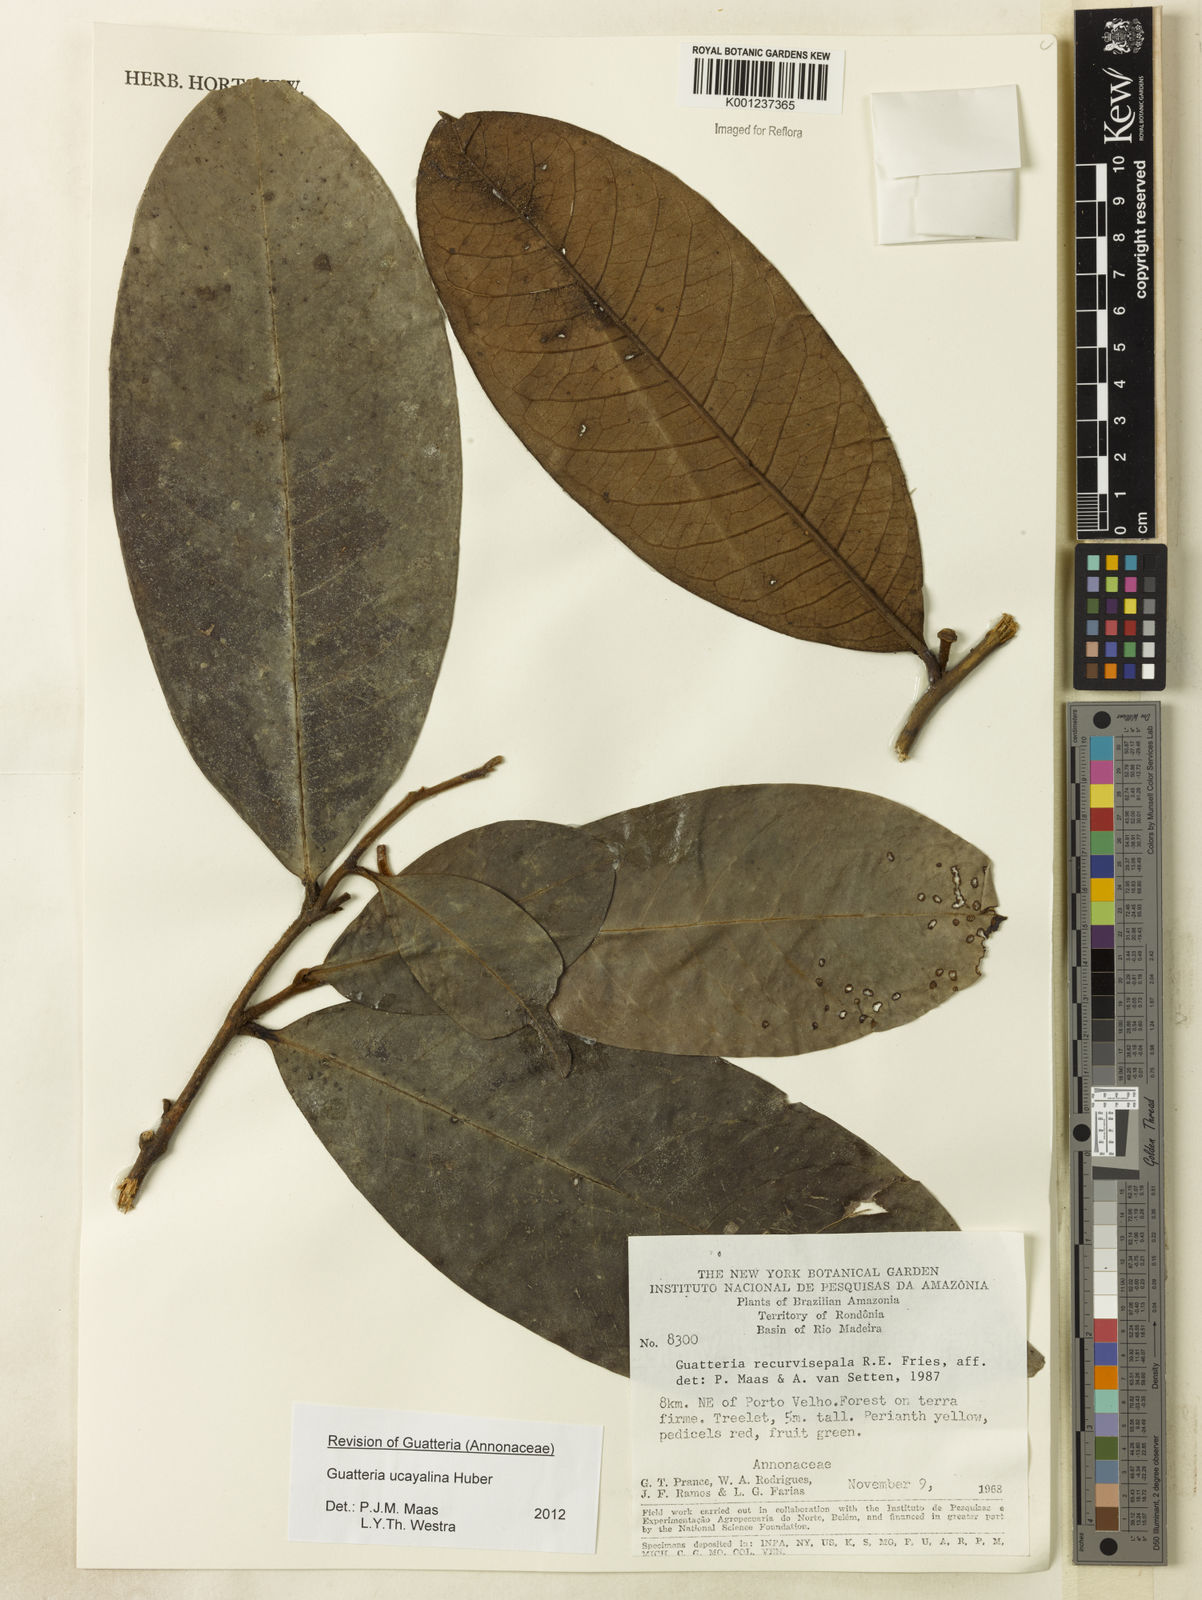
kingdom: Plantae
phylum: Tracheophyta
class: Magnoliopsida
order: Magnoliales
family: Annonaceae
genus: Guatteria
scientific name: Guatteria blepharophylla
